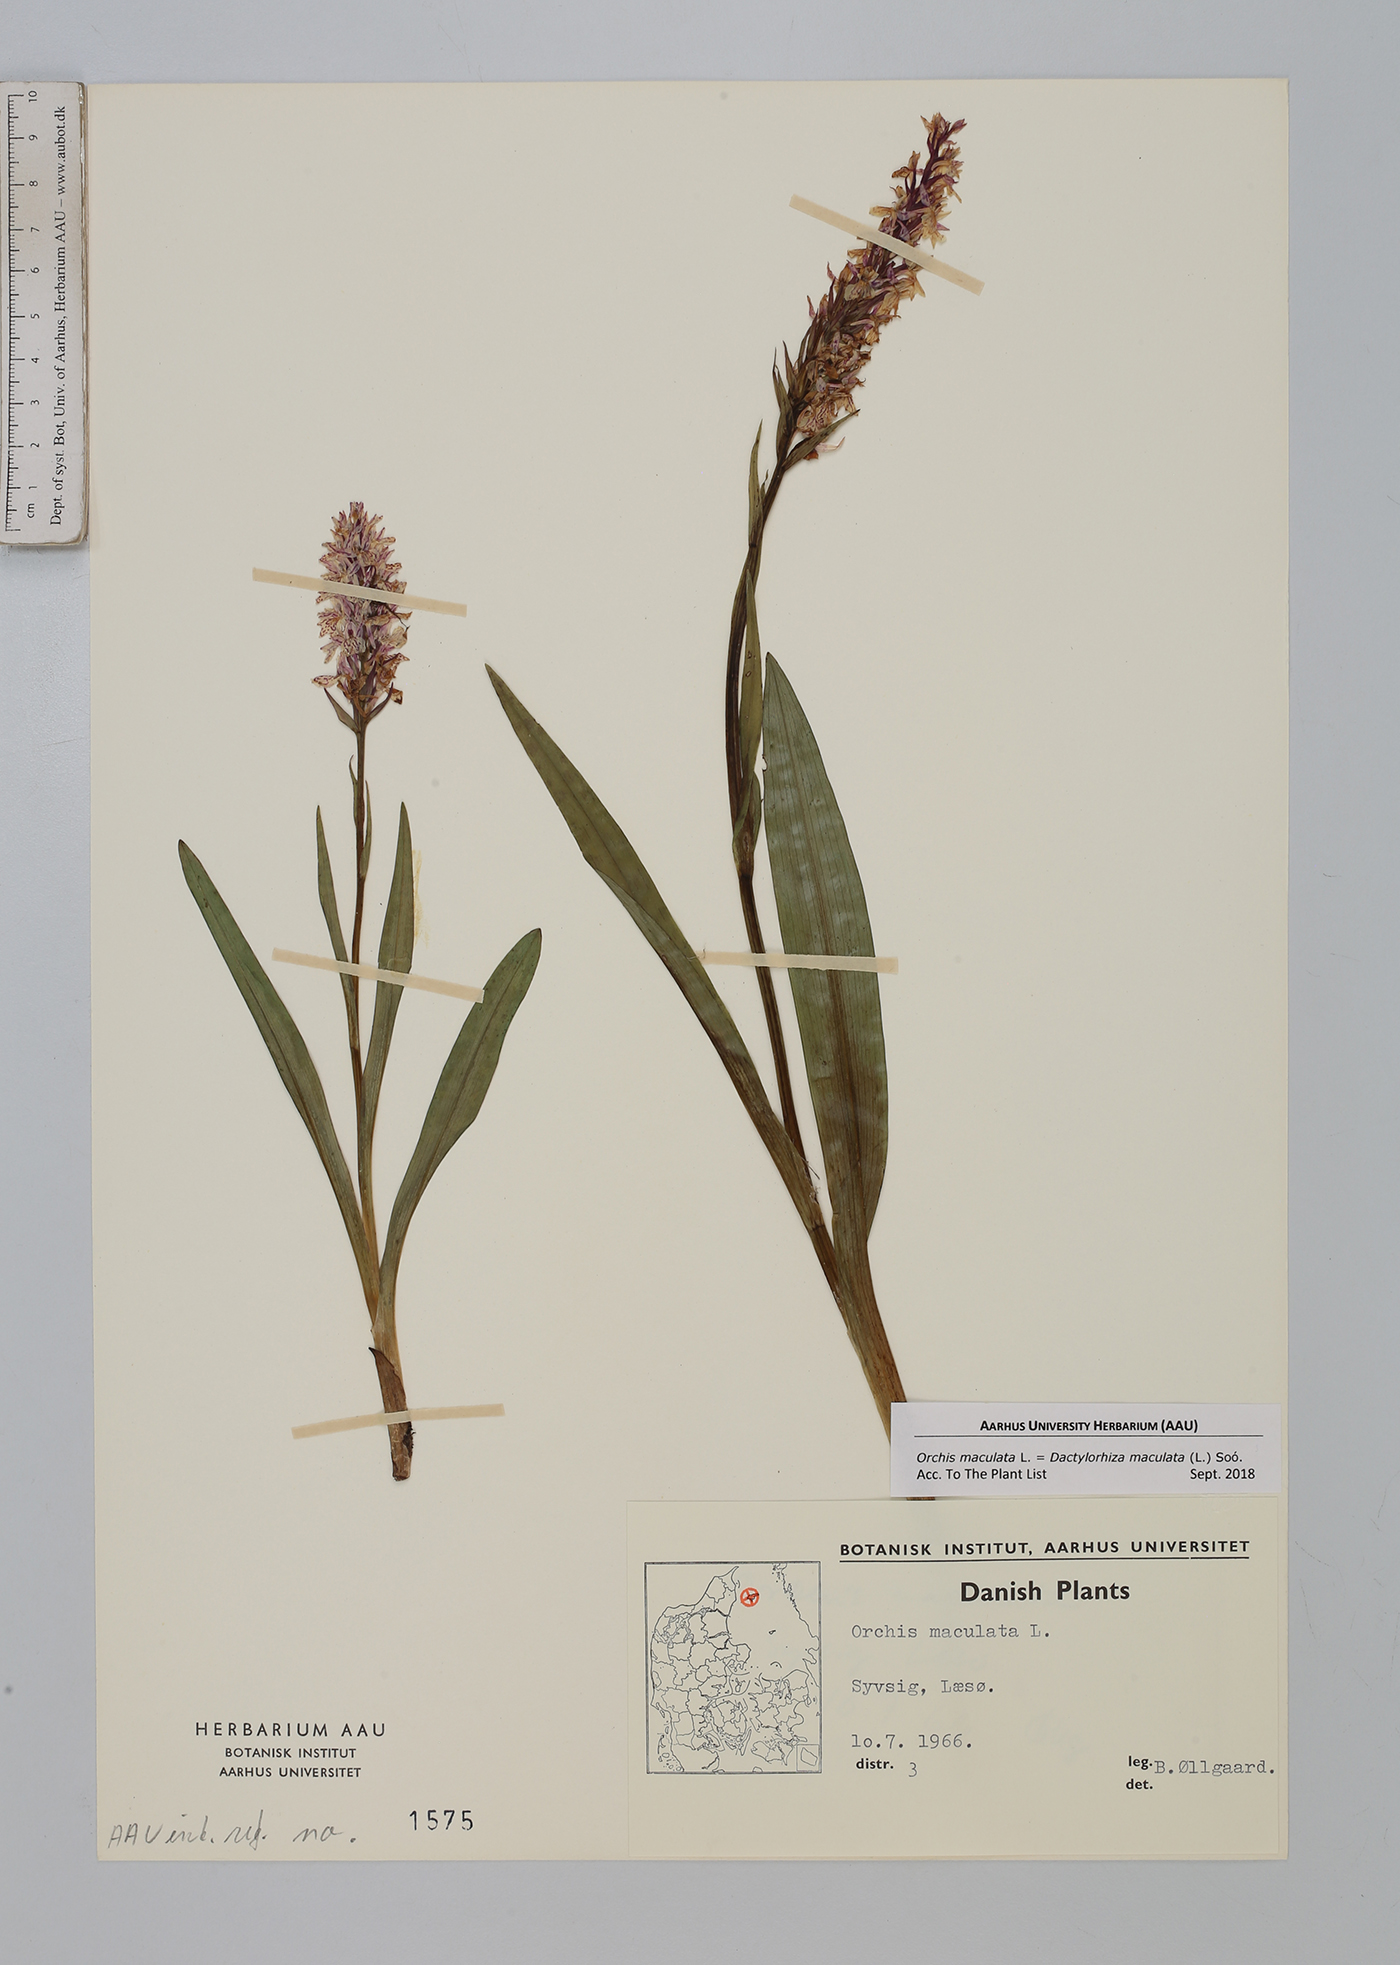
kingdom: Plantae
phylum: Tracheophyta
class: Liliopsida
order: Asparagales
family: Orchidaceae
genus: Dactylorhiza
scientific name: Dactylorhiza maculata
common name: Heath spotted-orchid
